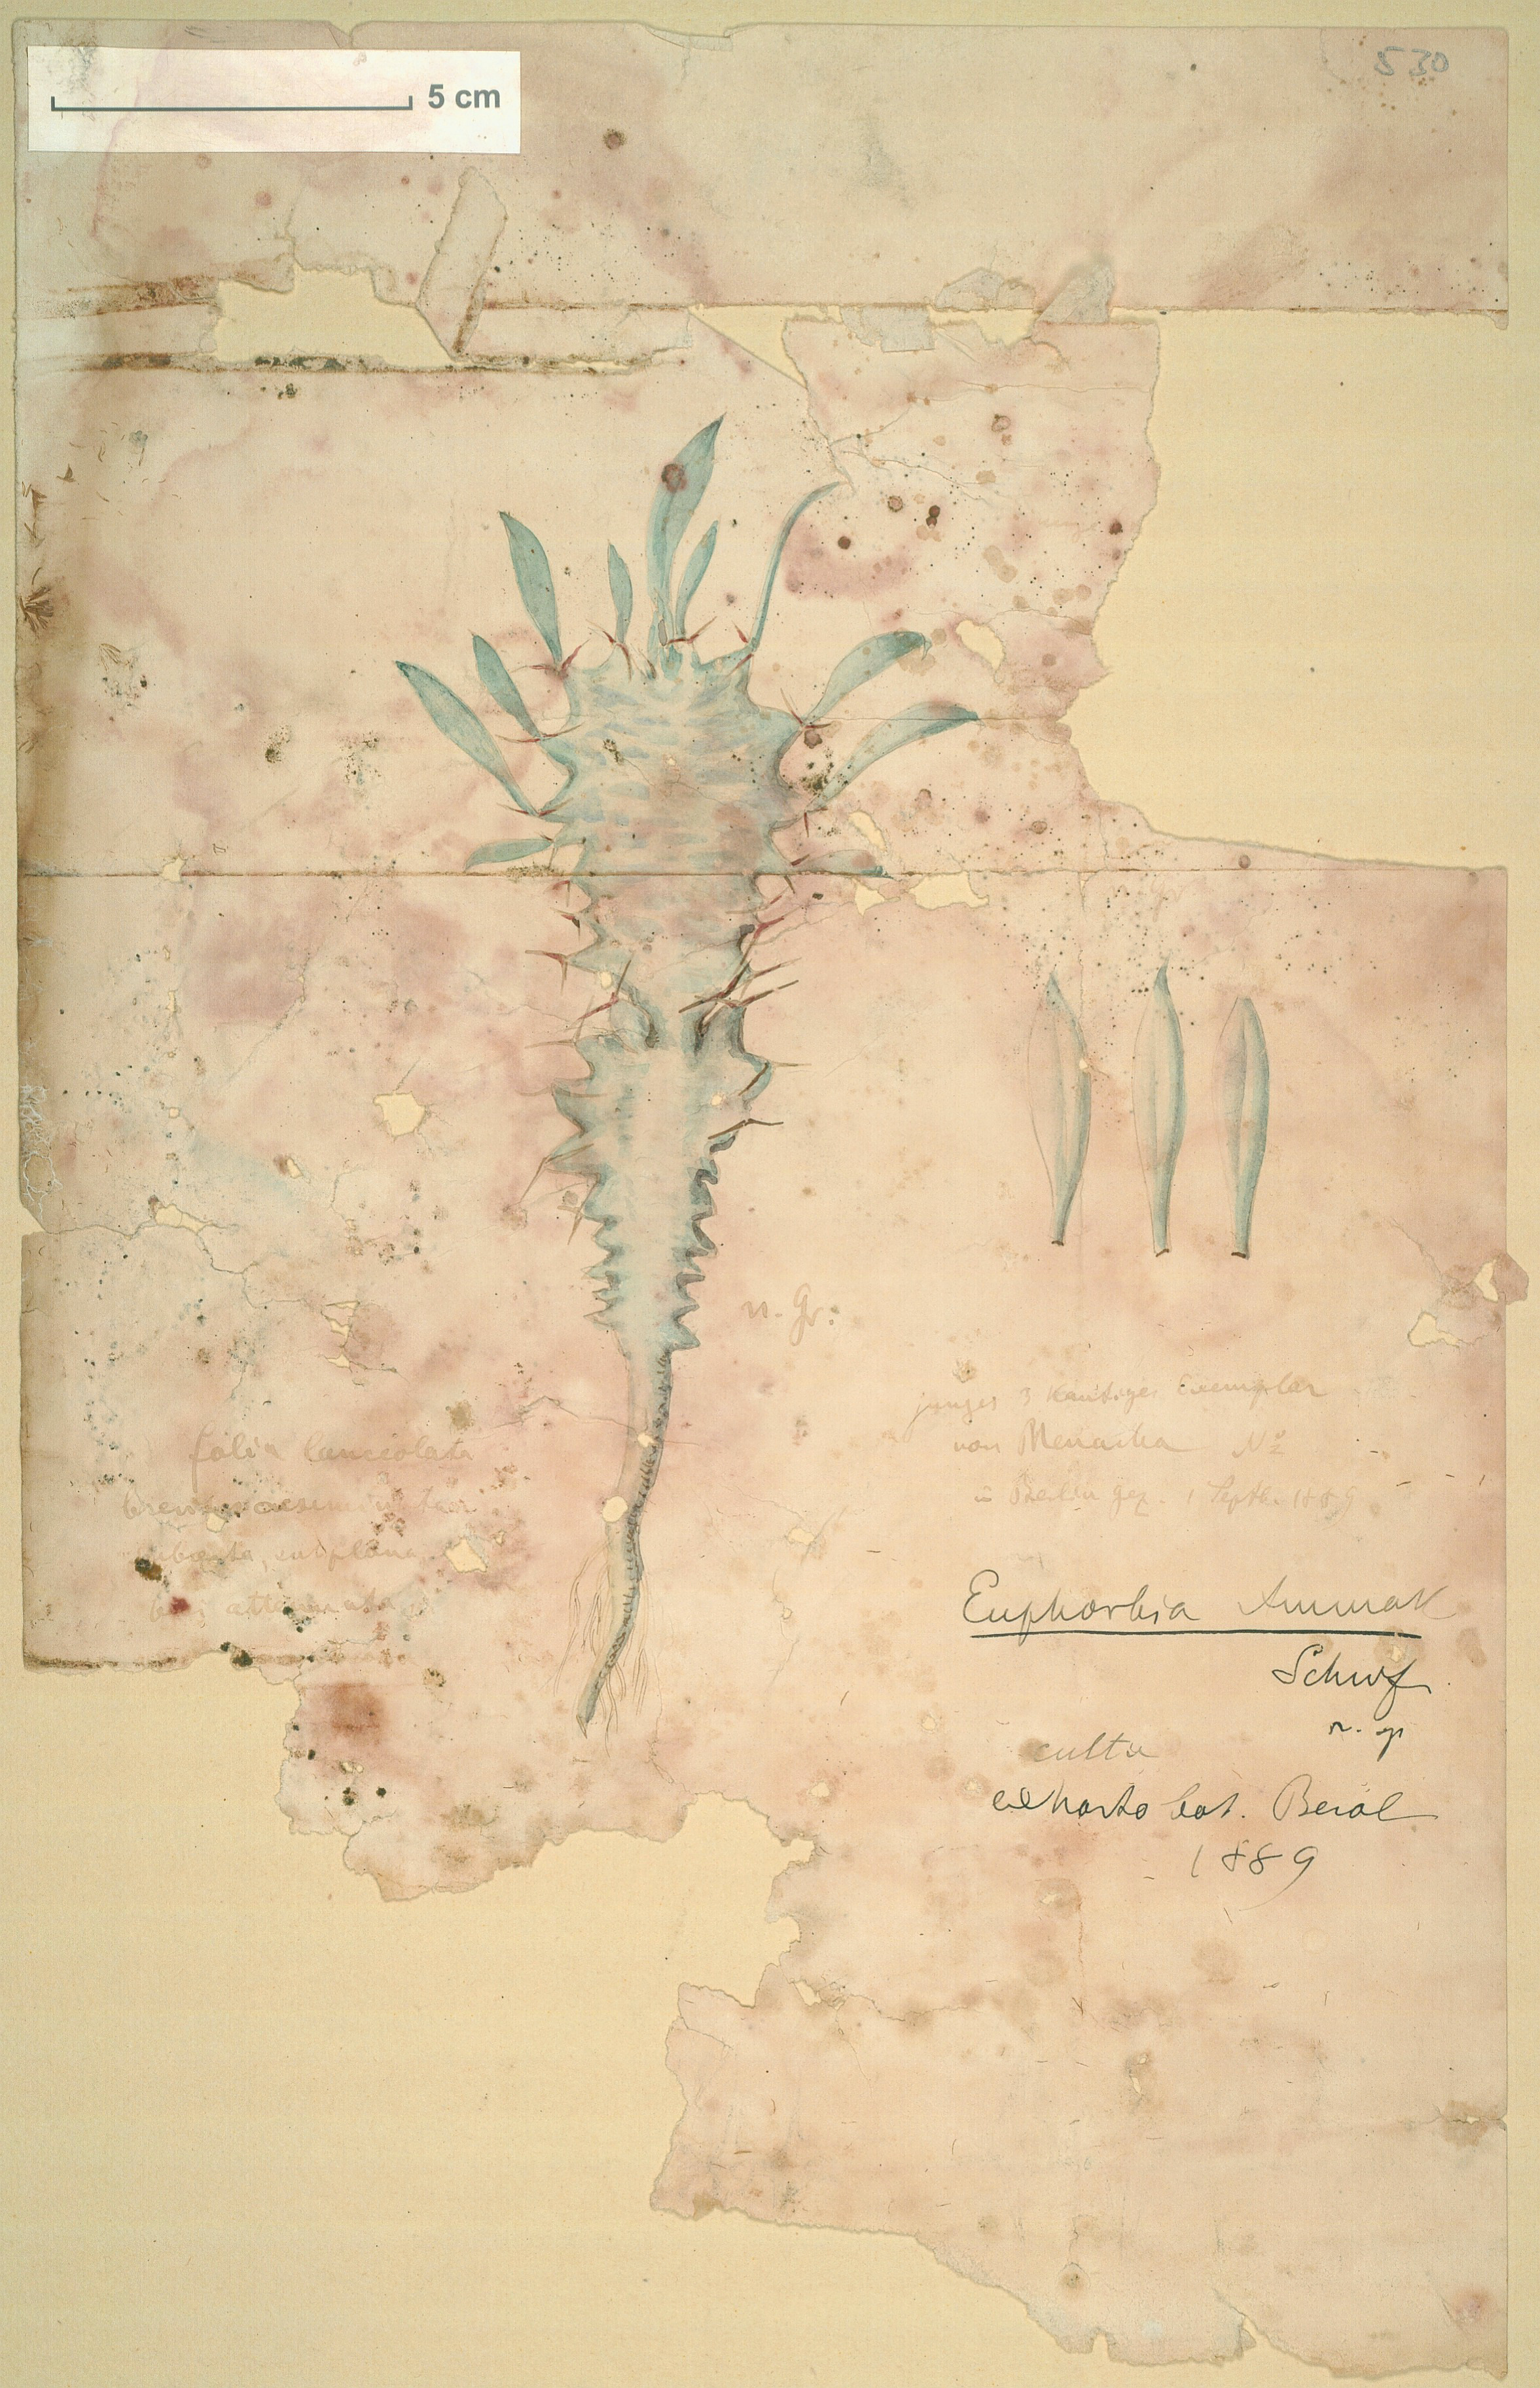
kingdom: Plantae
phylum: Tracheophyta
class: Magnoliopsida
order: Malpighiales
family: Euphorbiaceae
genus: Euphorbia
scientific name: Euphorbia ammak
